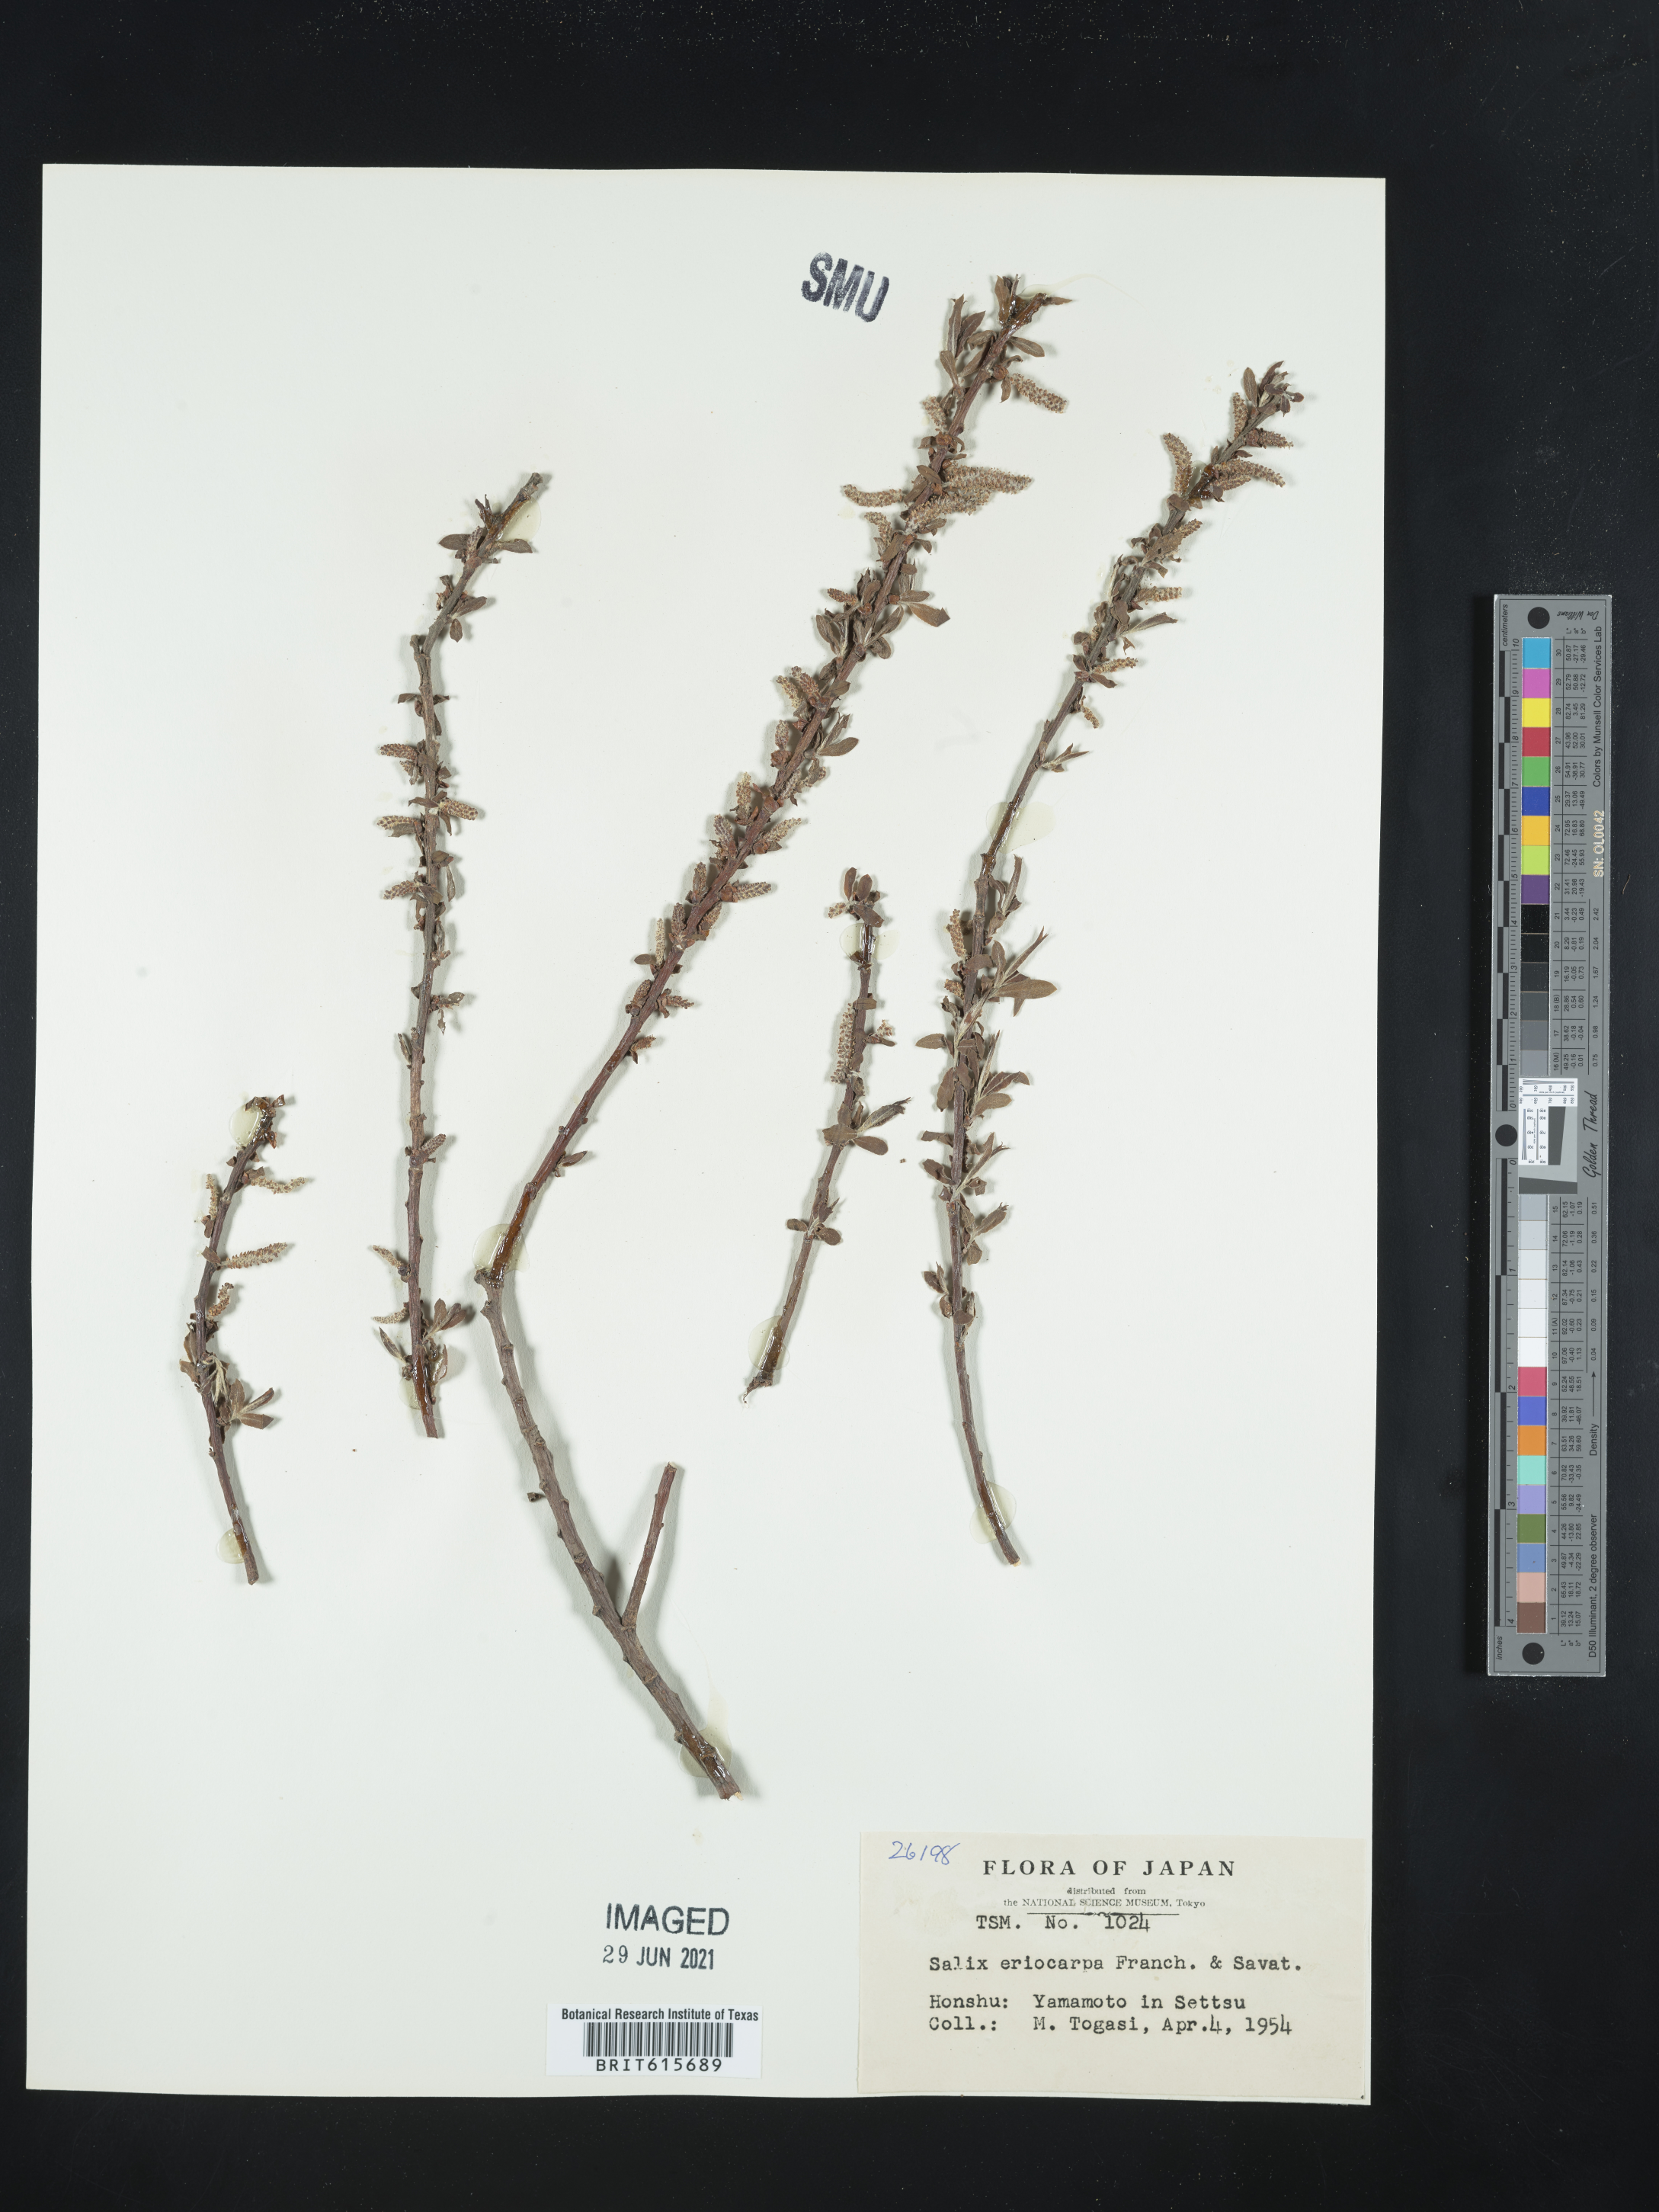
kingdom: Plantae
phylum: Tracheophyta
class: Magnoliopsida
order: Malpighiales
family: Salicaceae
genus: Salix
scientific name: Salix pierotii
